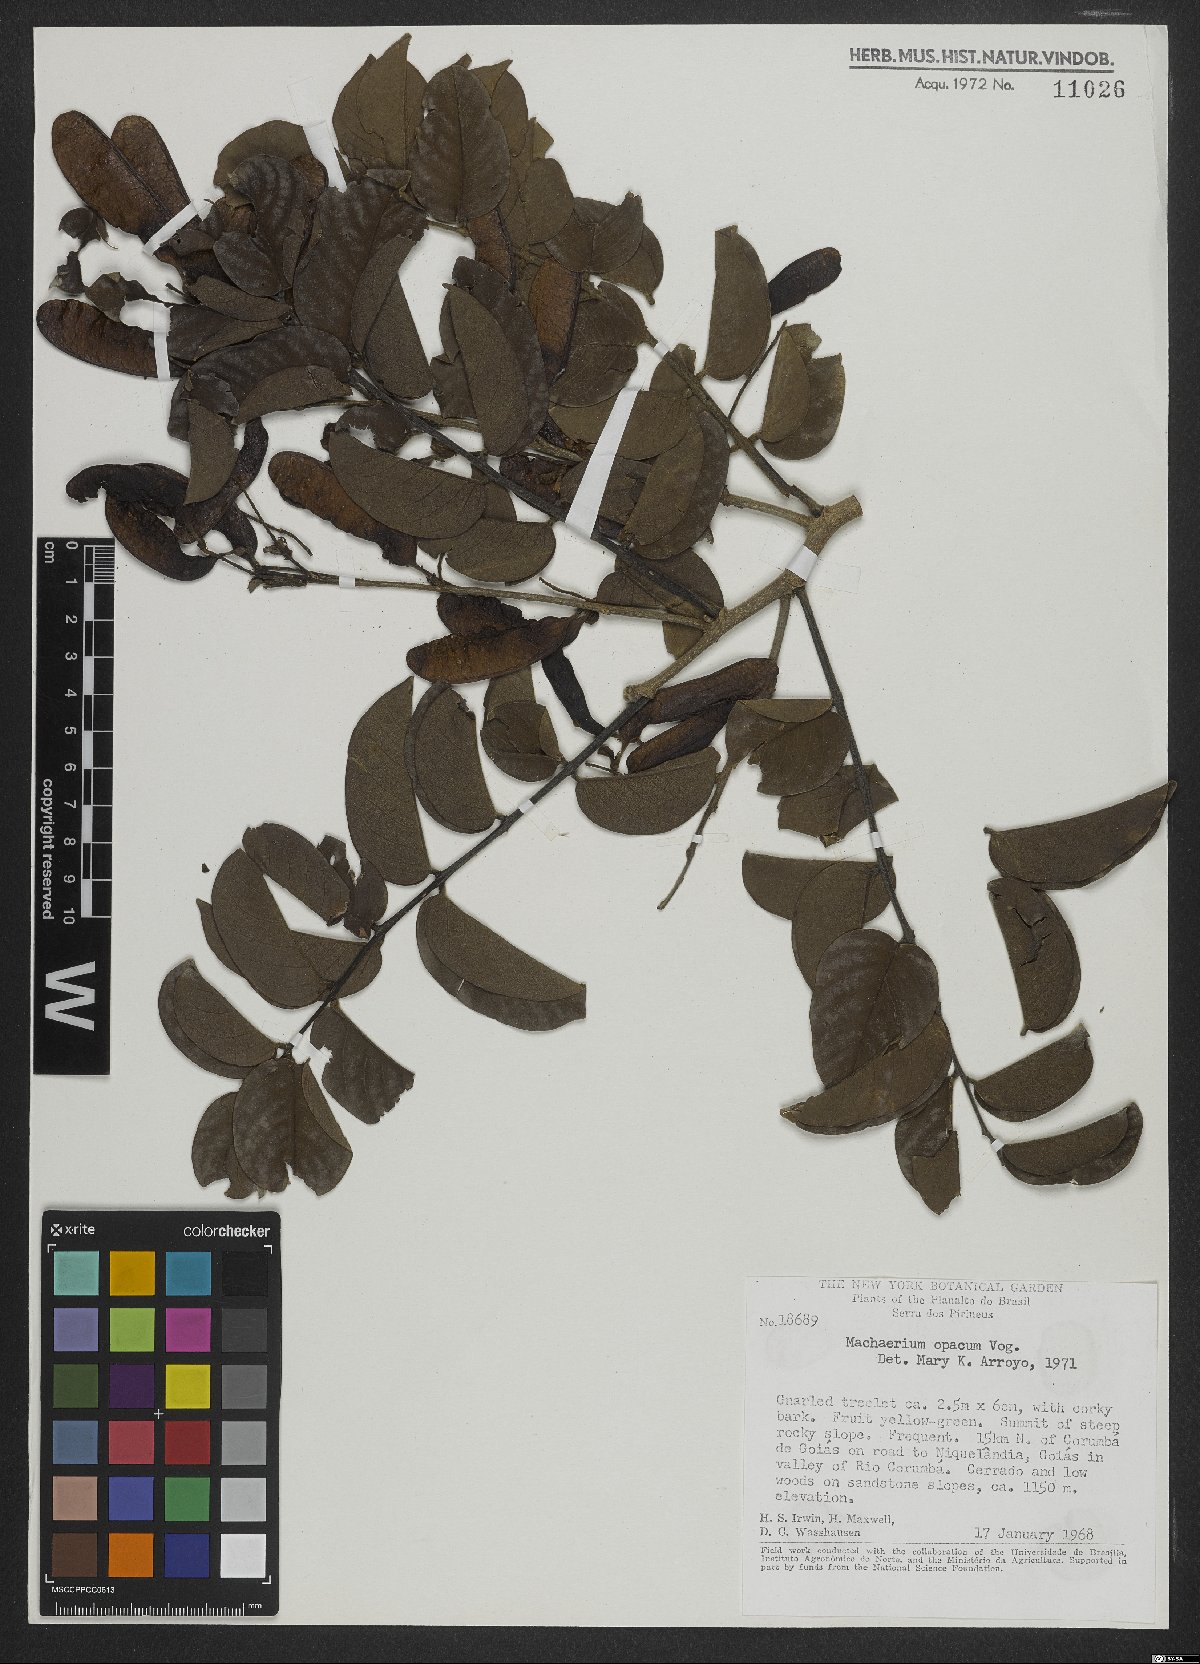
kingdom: Plantae
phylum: Tracheophyta
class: Magnoliopsida
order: Fabales
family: Fabaceae
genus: Machaerium
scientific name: Machaerium opacum
